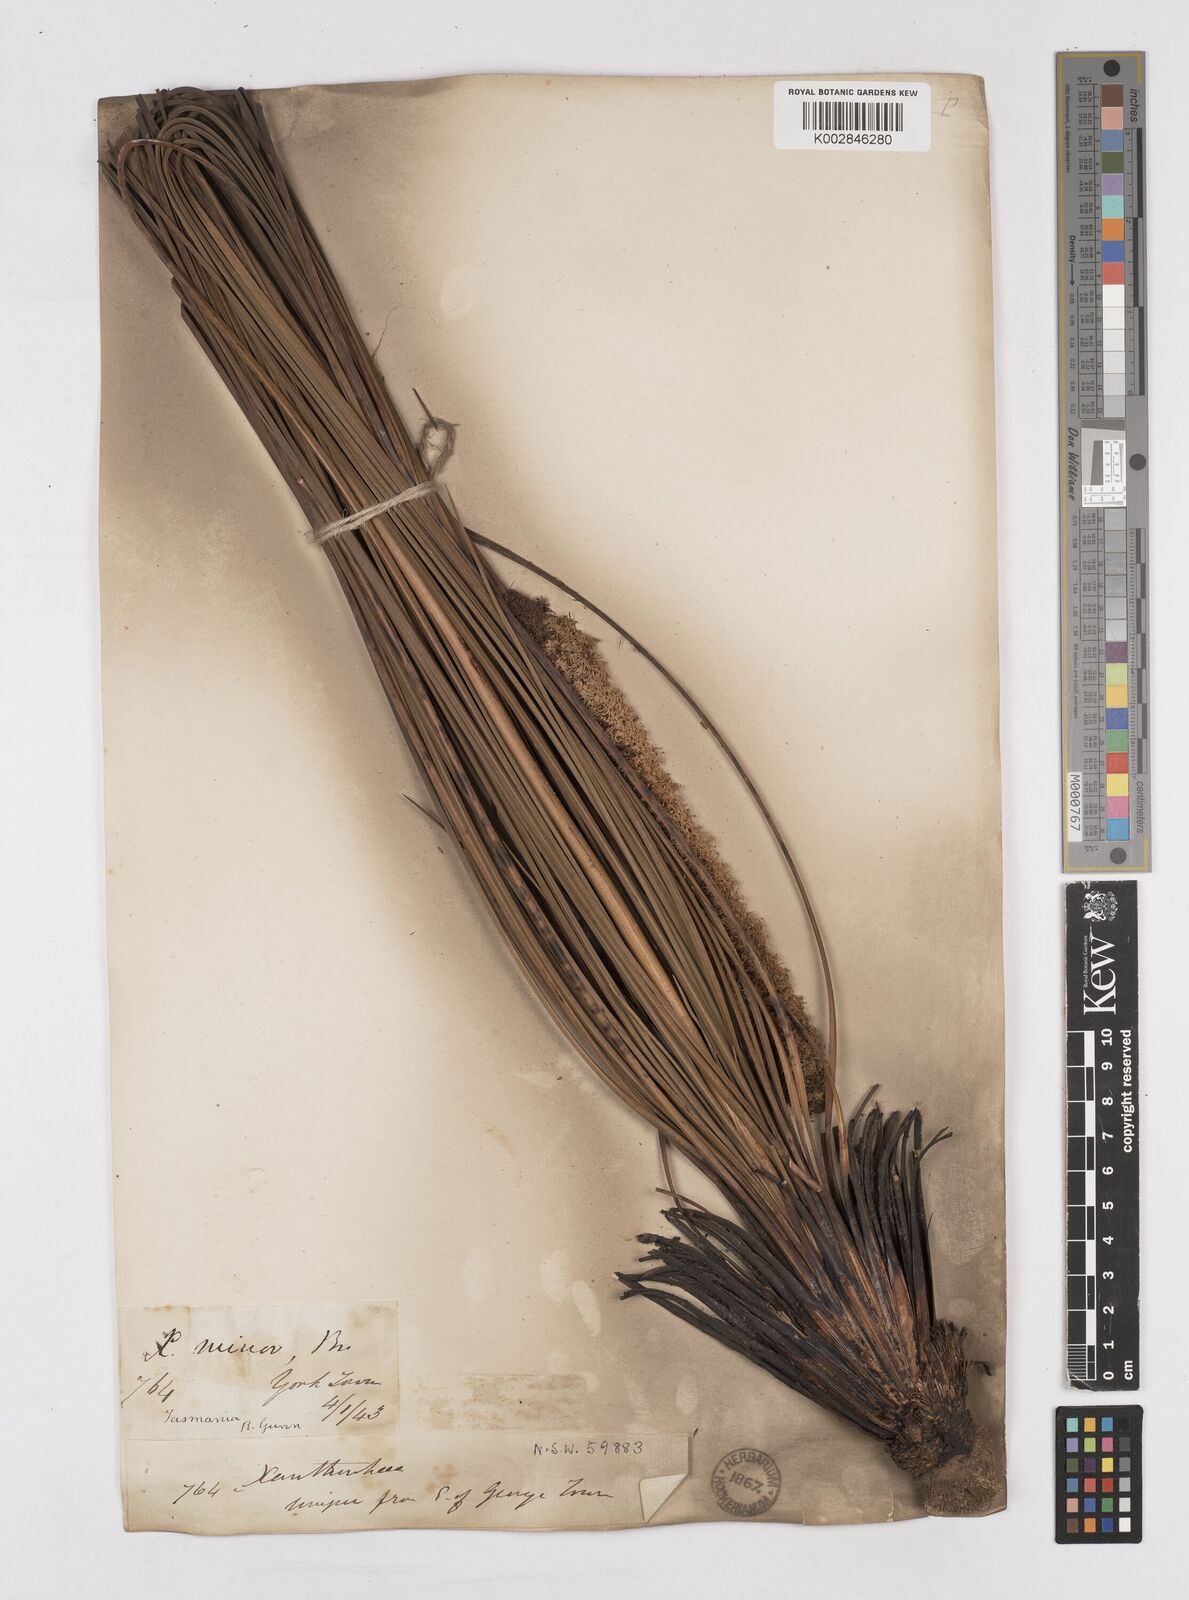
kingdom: Plantae
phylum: Tracheophyta
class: Liliopsida
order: Asparagales
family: Asphodelaceae
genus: Xanthorrhoea
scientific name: Xanthorrhoea minor
